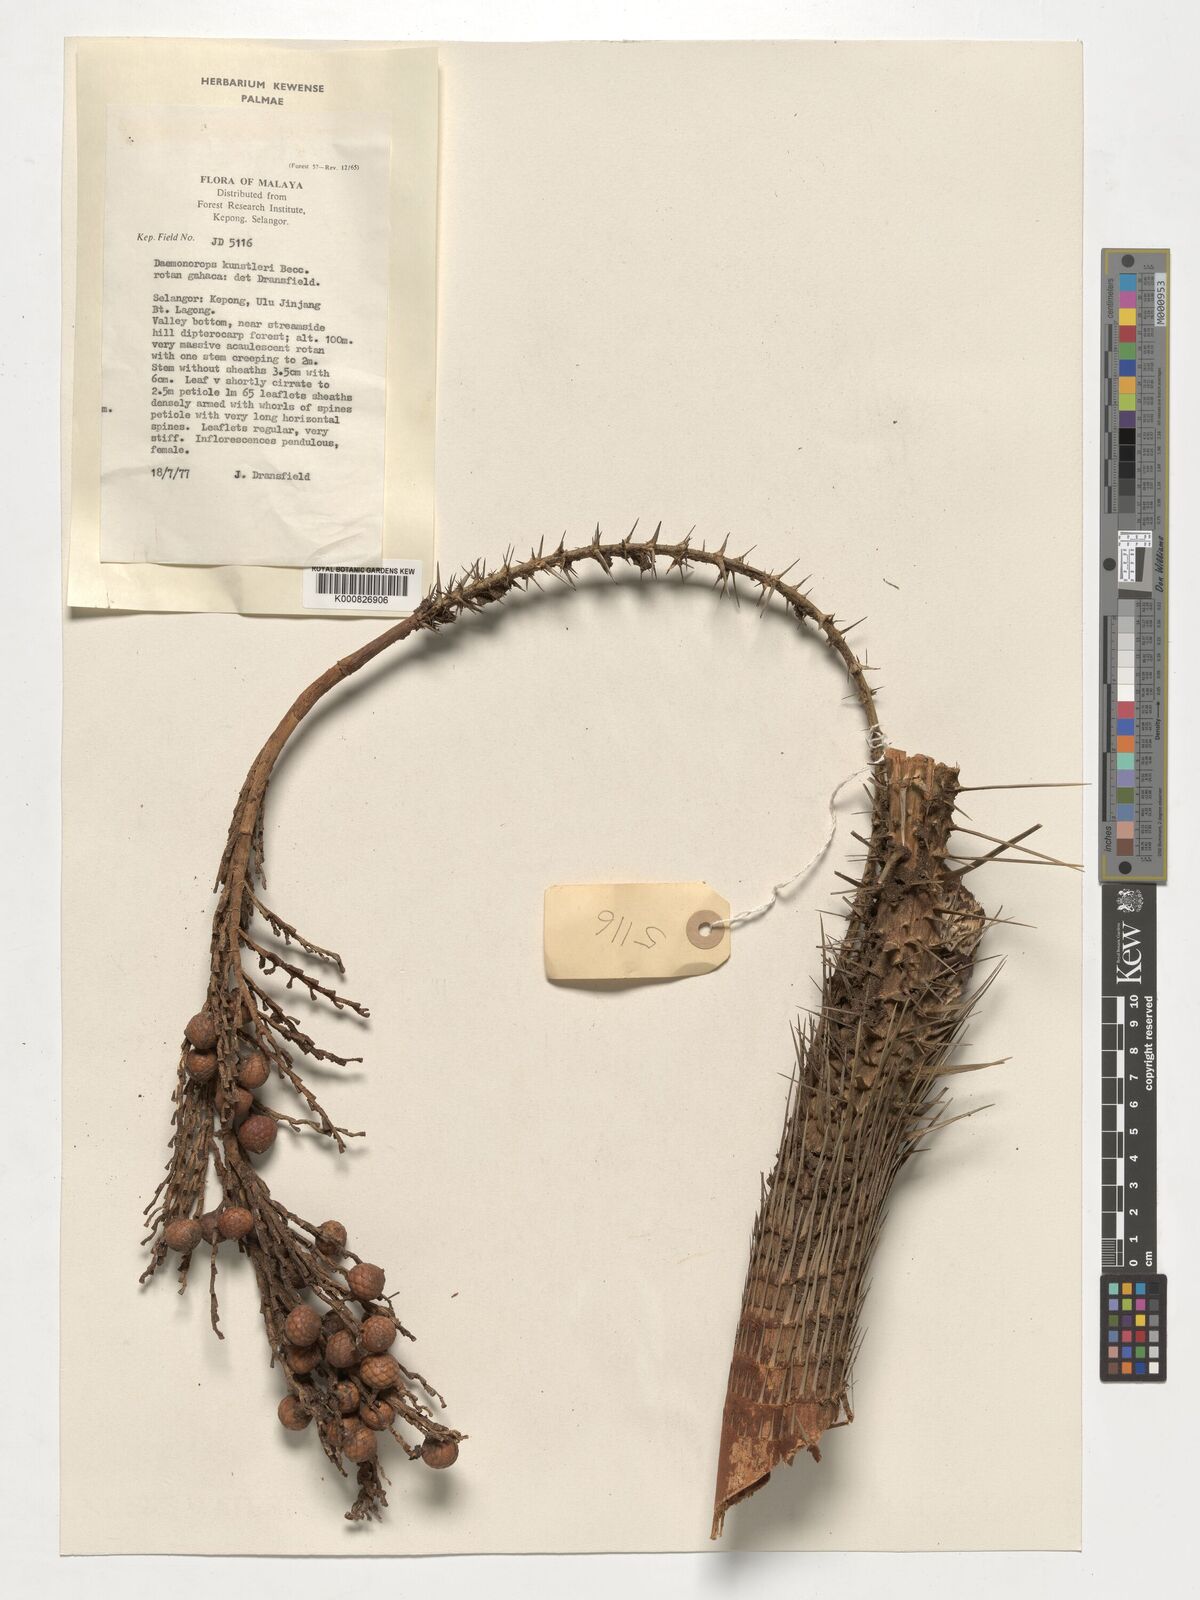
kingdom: Plantae
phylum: Tracheophyta
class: Liliopsida
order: Arecales
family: Arecaceae
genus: Calamus
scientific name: Calamus kunstleri
